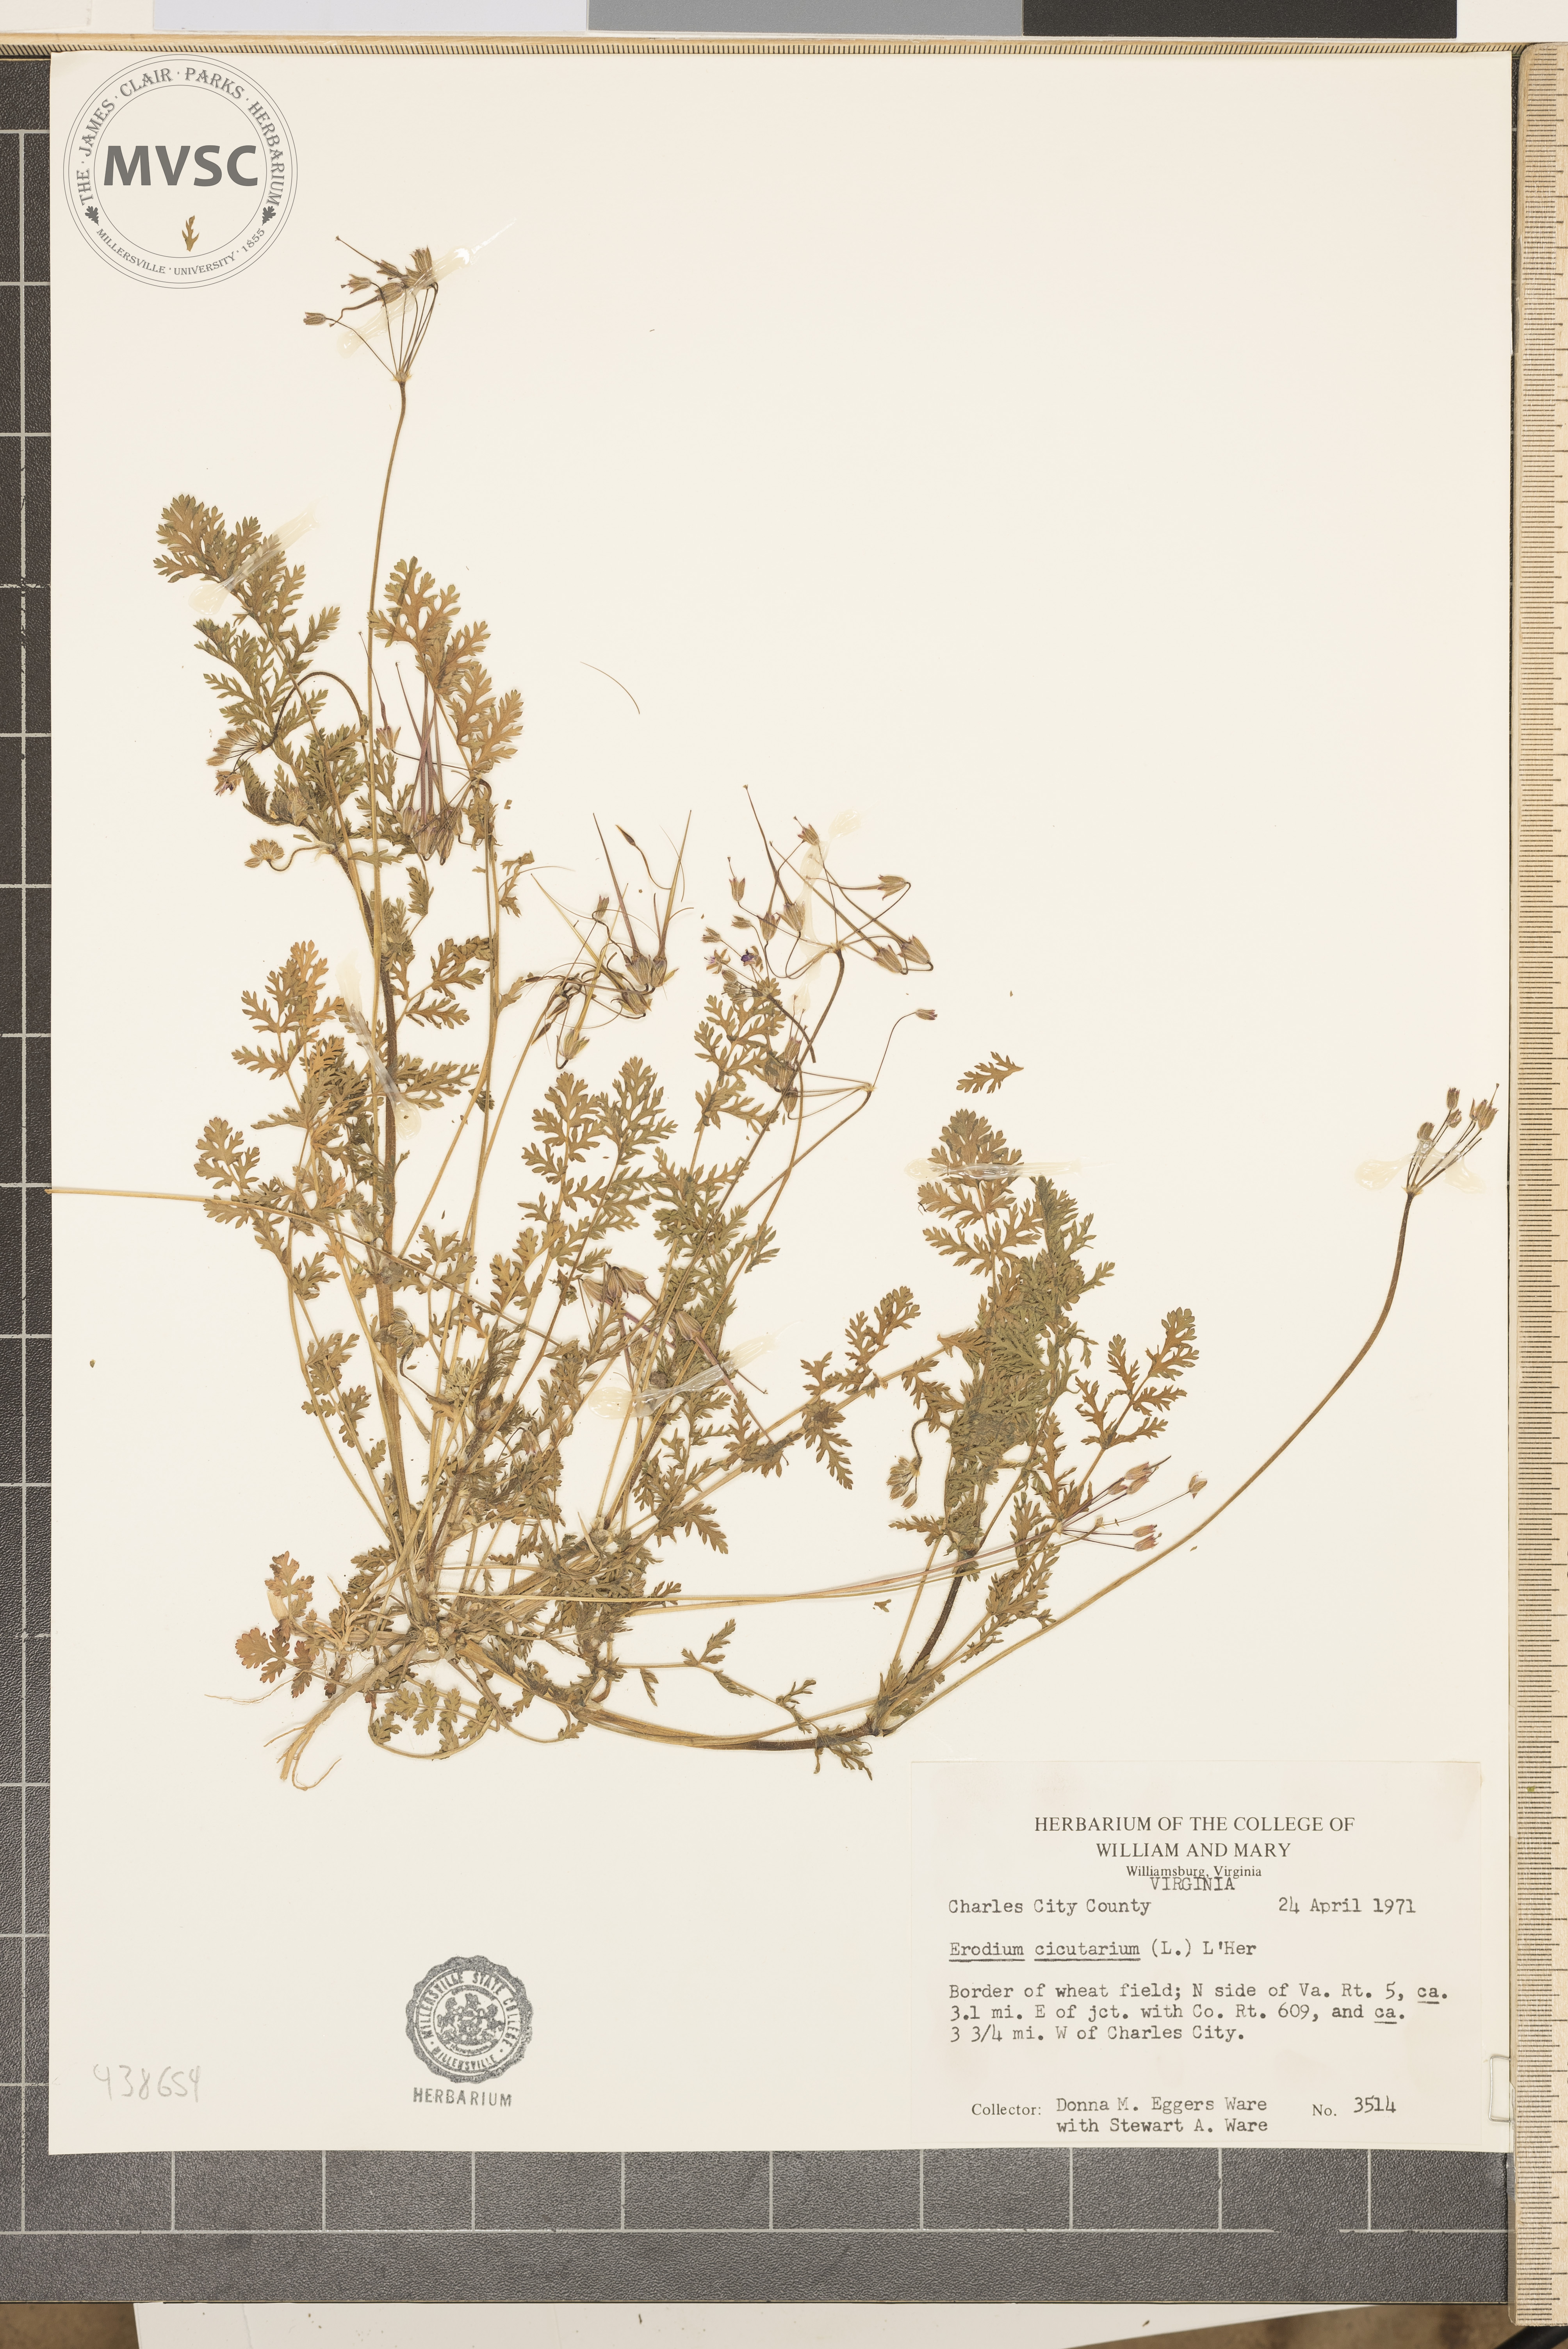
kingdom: Plantae
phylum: Tracheophyta
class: Magnoliopsida
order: Geraniales
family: Geraniaceae
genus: Erodium
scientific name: Erodium cicutarium
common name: Common stork's-bill
